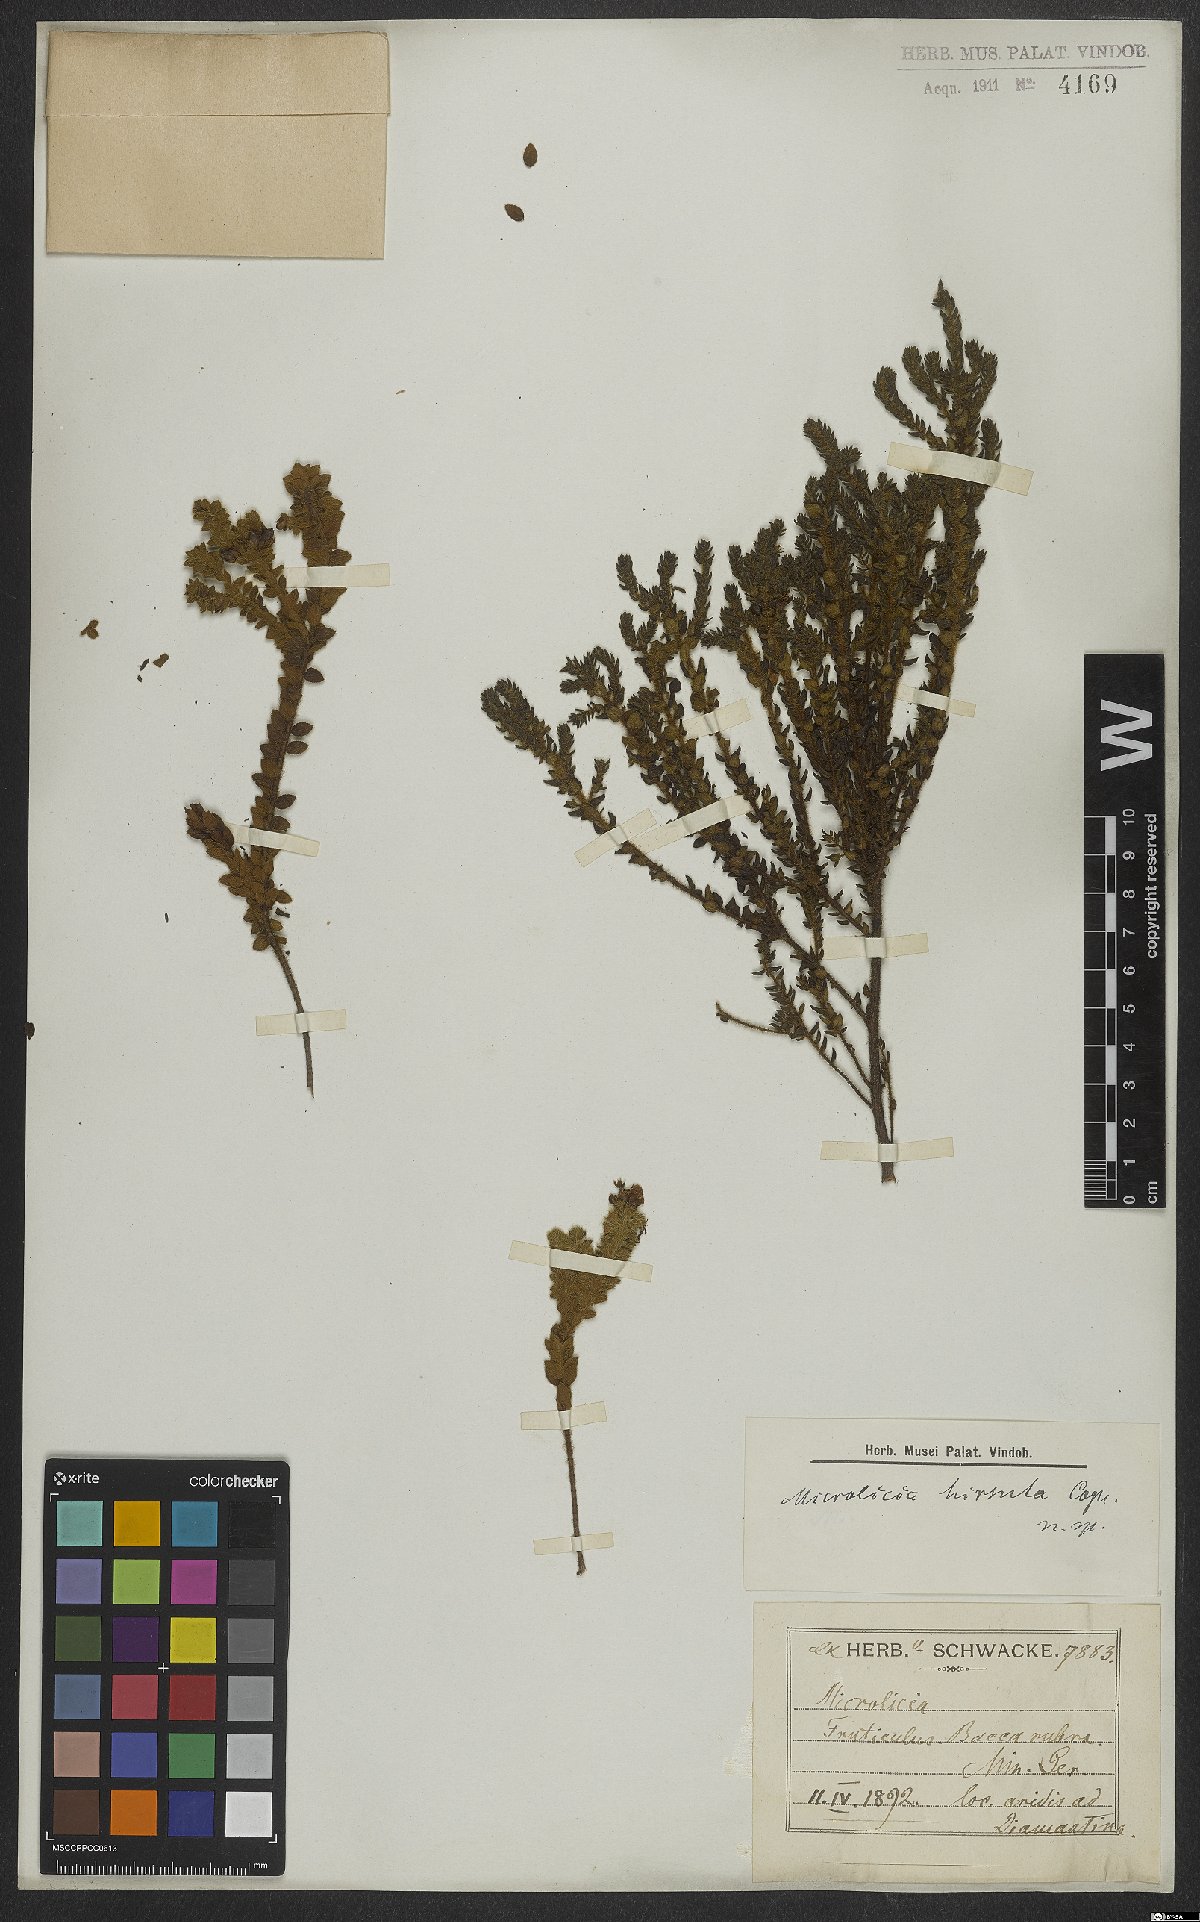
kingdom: Plantae
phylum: Tracheophyta
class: Magnoliopsida
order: Myrtales
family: Melastomataceae
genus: Microlicia
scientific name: Microlicia hirsuta
